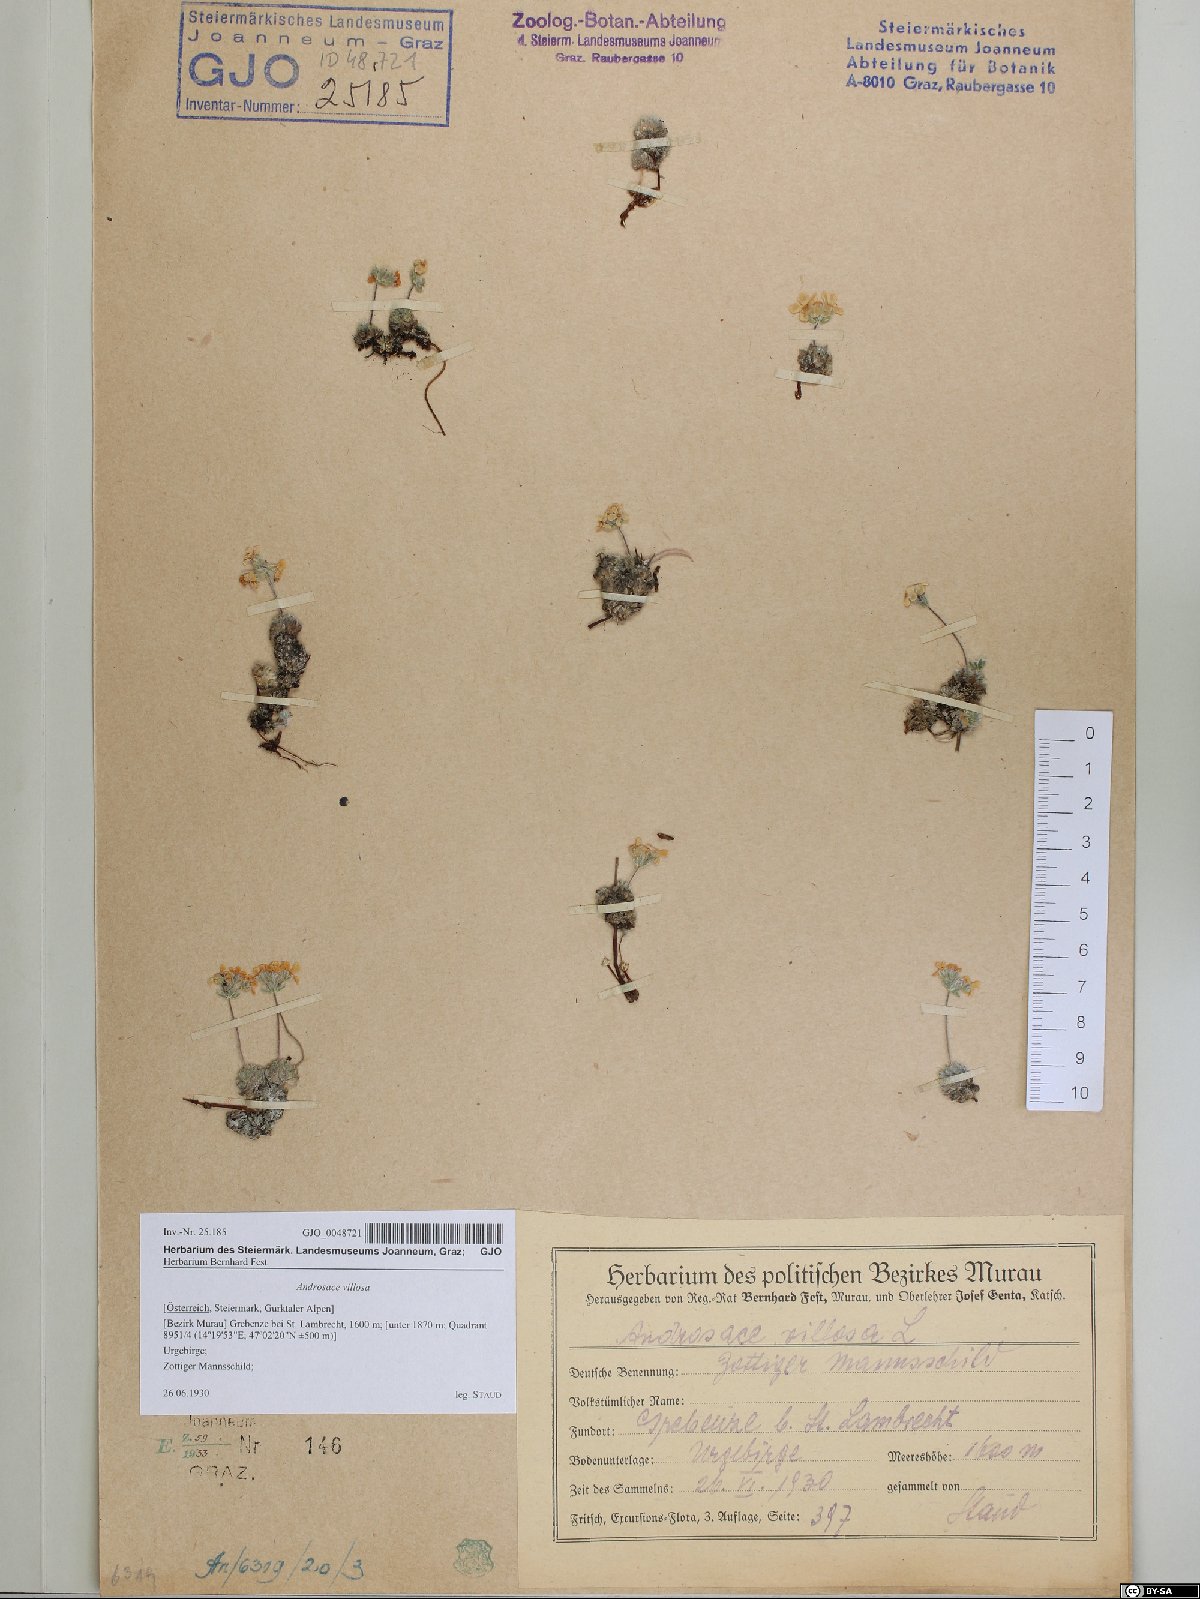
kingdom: Plantae
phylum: Tracheophyta
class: Magnoliopsida
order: Ericales
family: Primulaceae
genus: Androsace
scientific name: Androsace villosa
